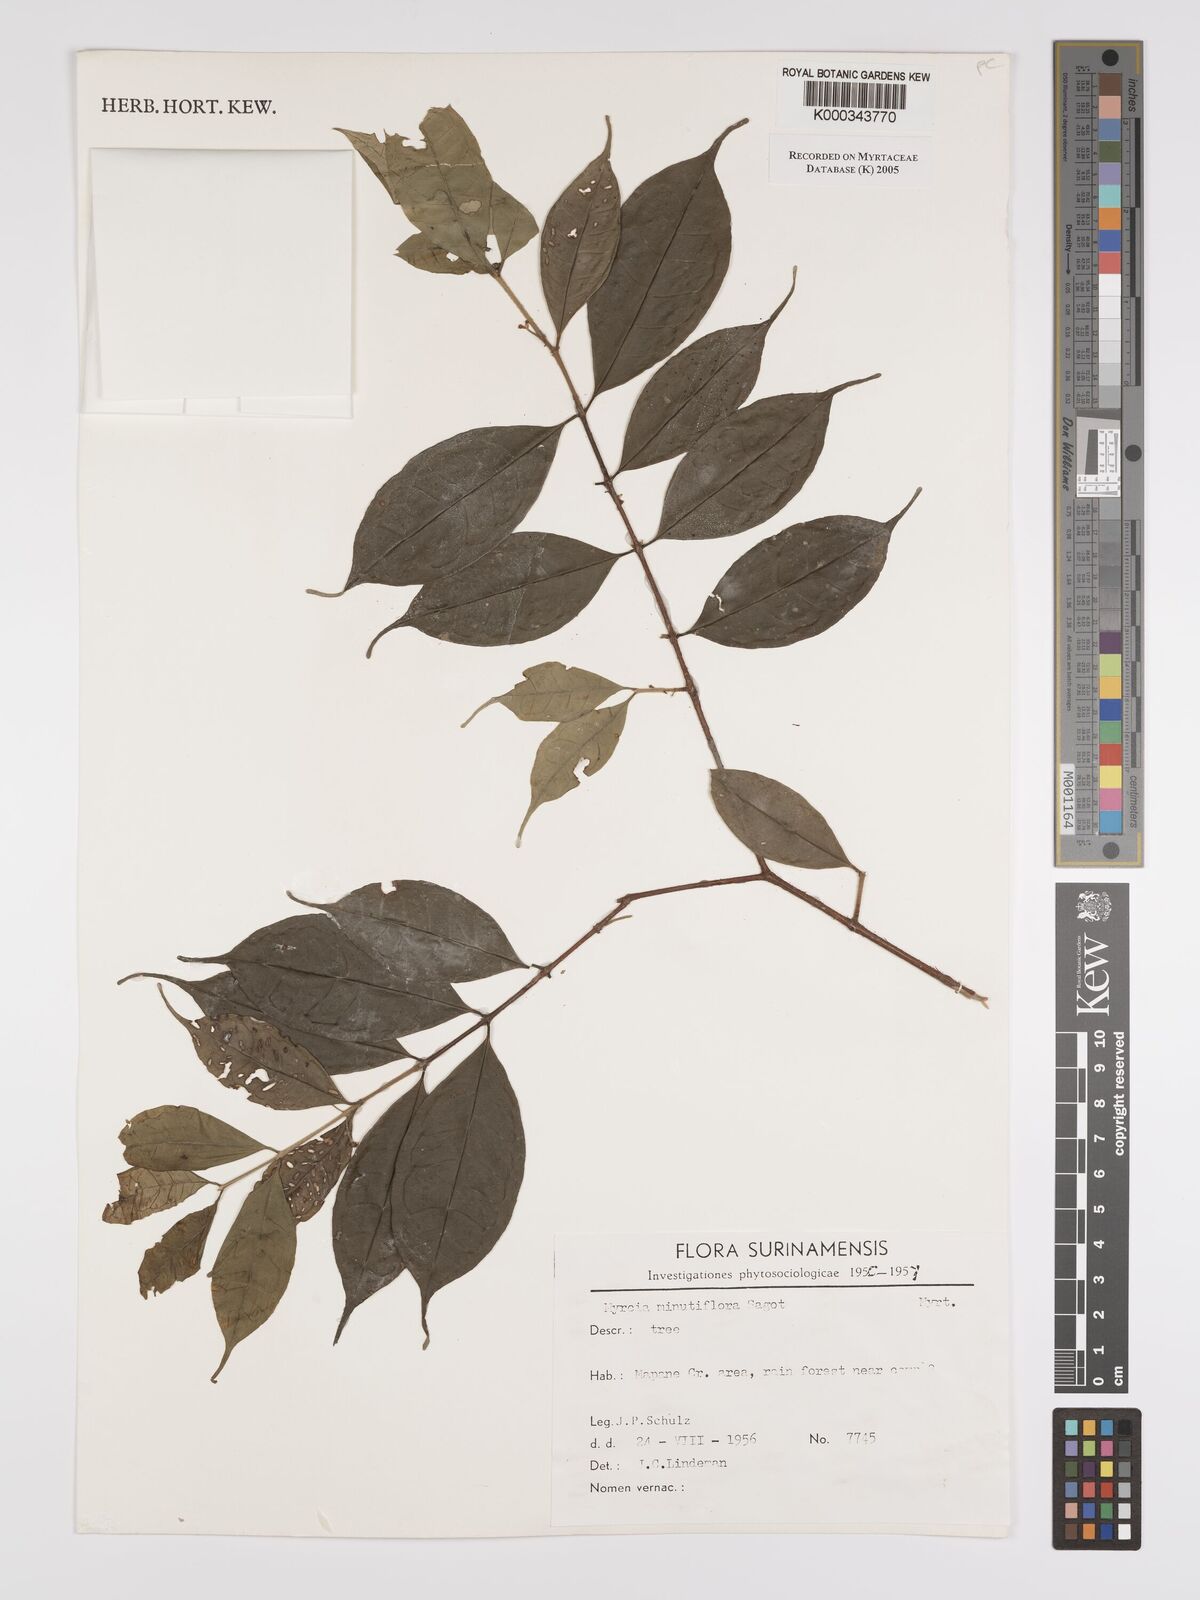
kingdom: Plantae
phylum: Tracheophyta
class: Magnoliopsida
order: Myrtales
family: Myrtaceae
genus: Myrcia
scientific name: Myrcia minutiflora
